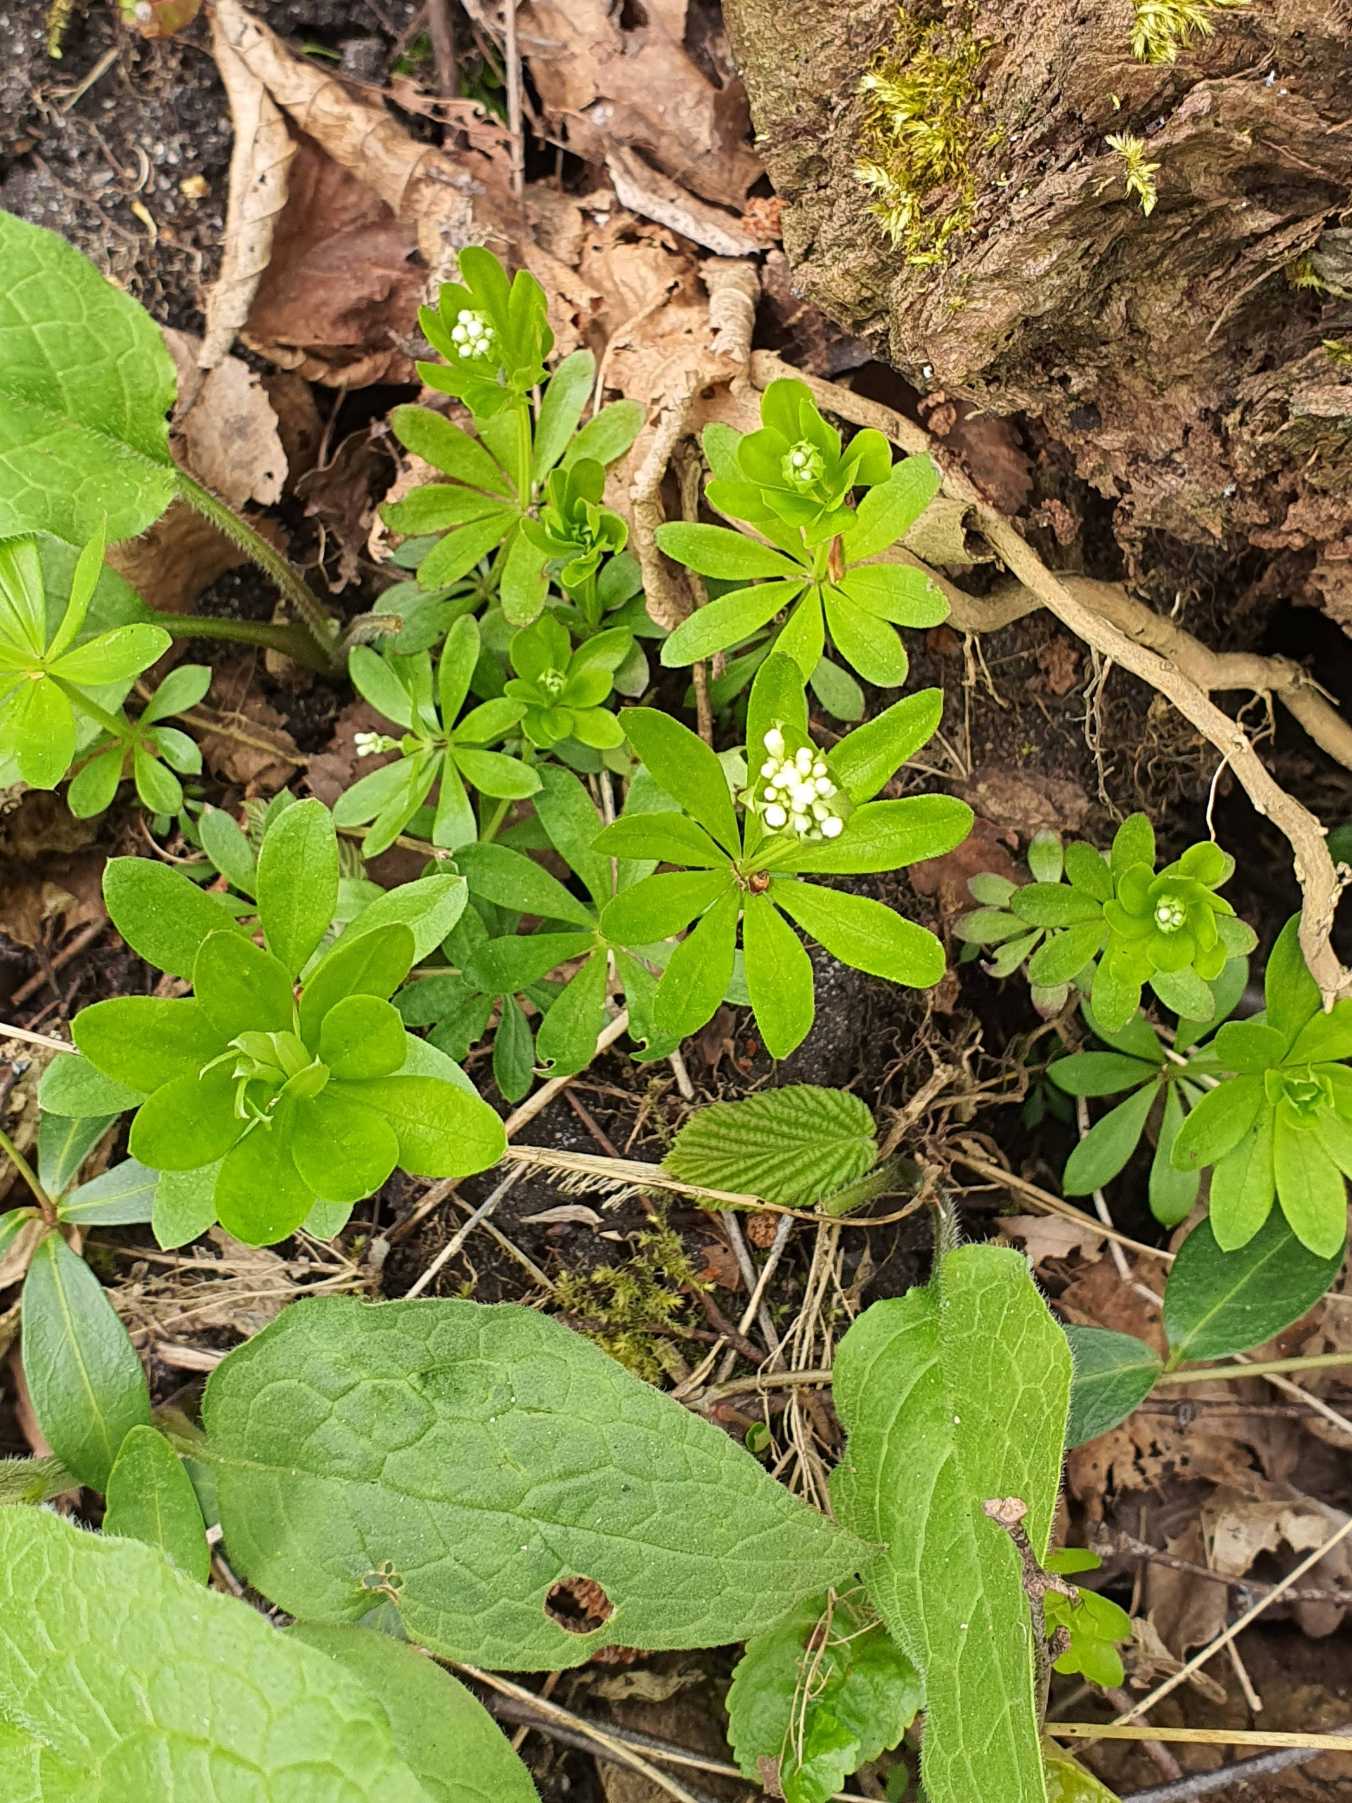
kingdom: Plantae
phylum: Tracheophyta
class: Magnoliopsida
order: Gentianales
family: Rubiaceae
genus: Galium
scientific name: Galium odoratum
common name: Skovmærke
